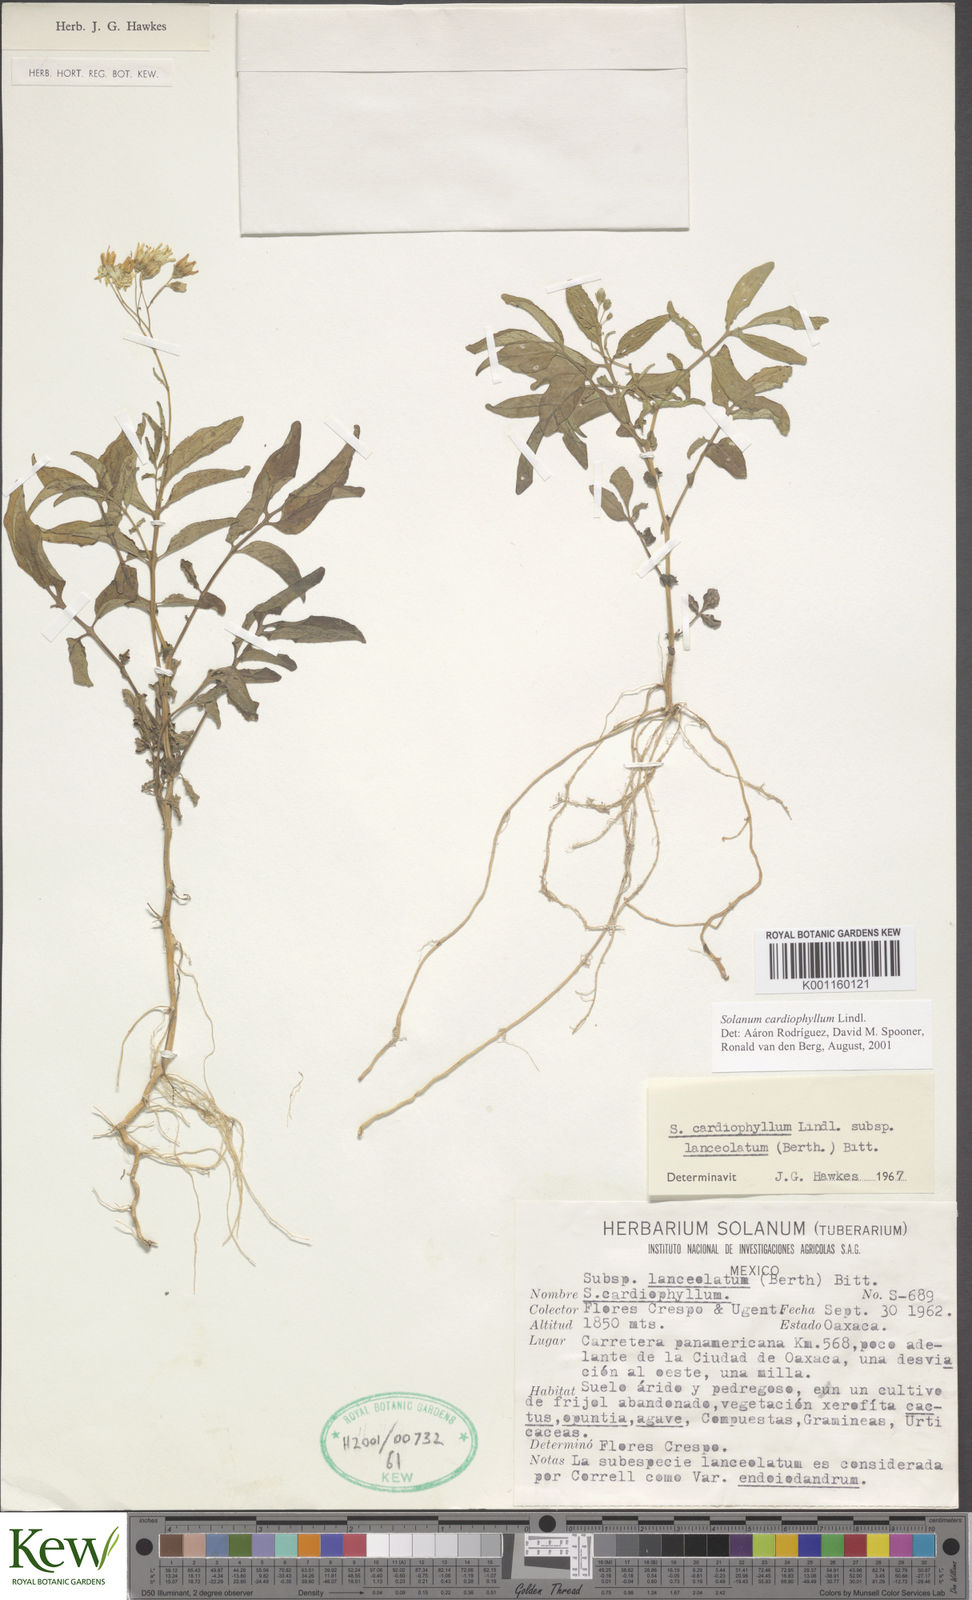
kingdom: Plantae
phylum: Tracheophyta
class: Magnoliopsida
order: Solanales
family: Solanaceae
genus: Solanum
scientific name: Solanum cardiophyllum
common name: Heartleaf horsenettle
